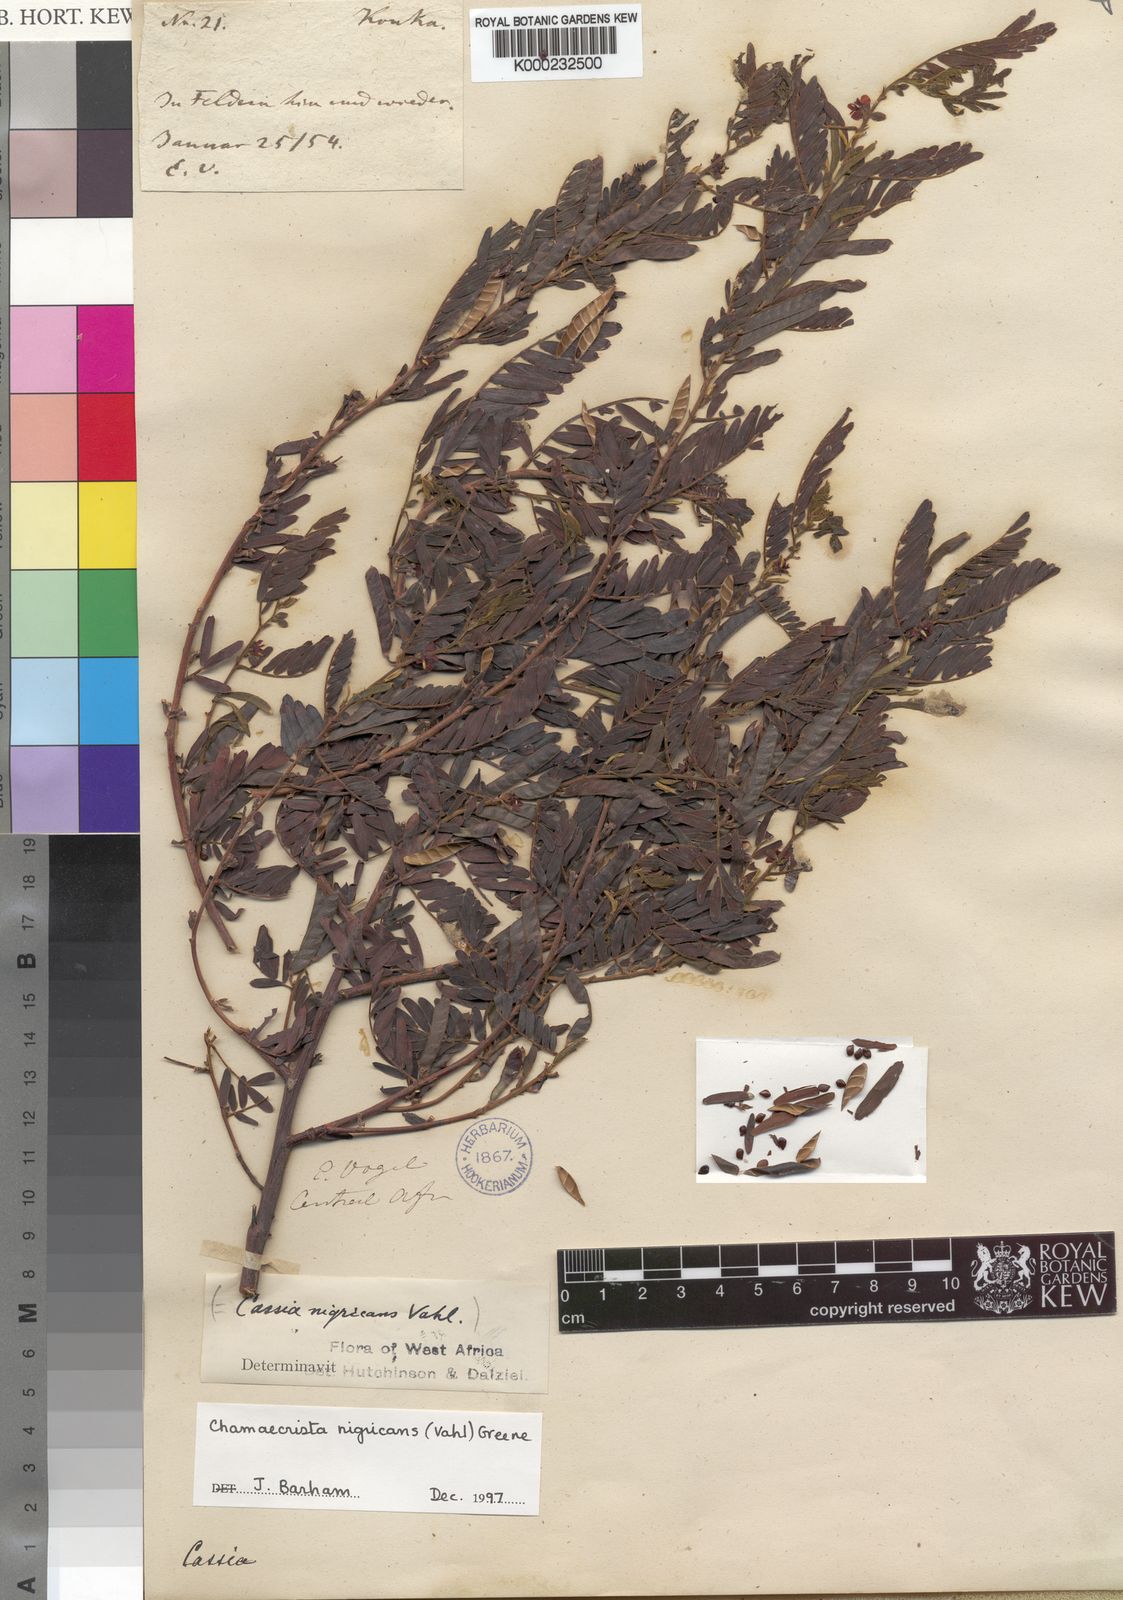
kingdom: Plantae
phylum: Tracheophyta
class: Magnoliopsida
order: Fabales
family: Fabaceae
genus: Chamaecrista
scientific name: Chamaecrista nigricans
